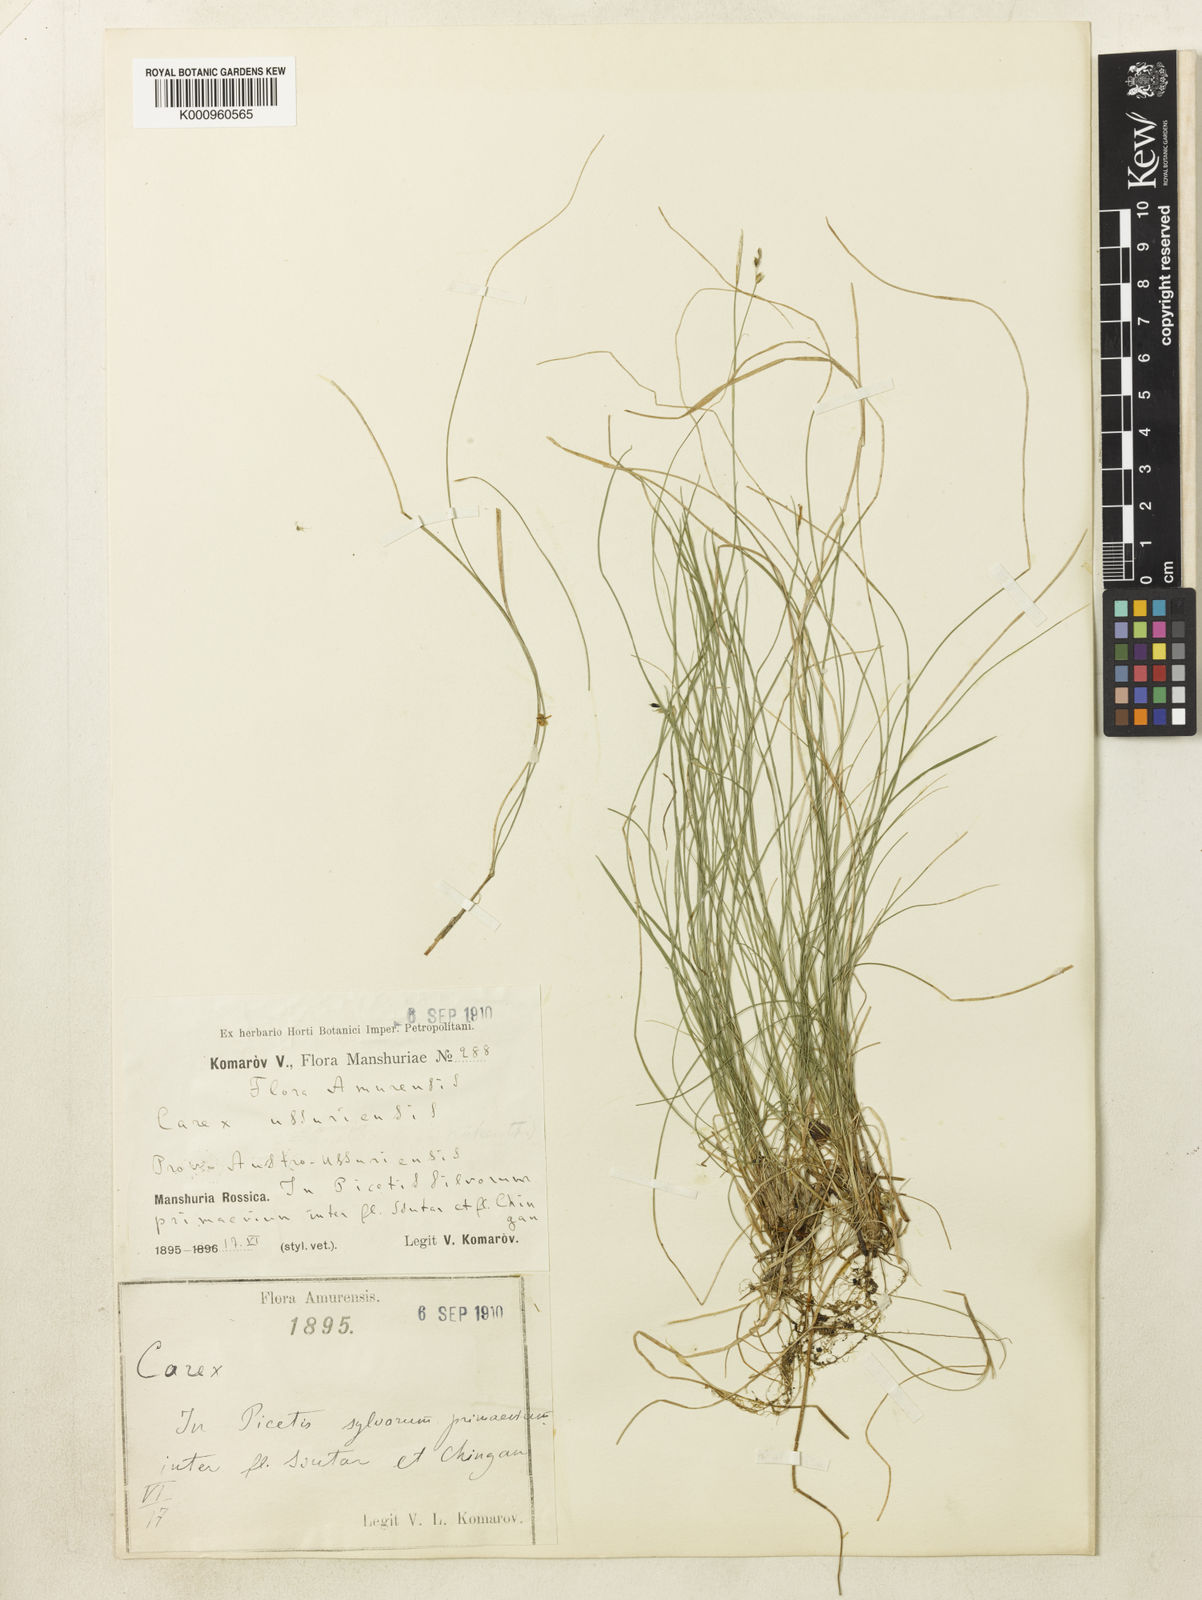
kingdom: Plantae
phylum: Tracheophyta
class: Liliopsida
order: Poales
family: Cyperaceae
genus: Carex
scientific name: Carex alba
